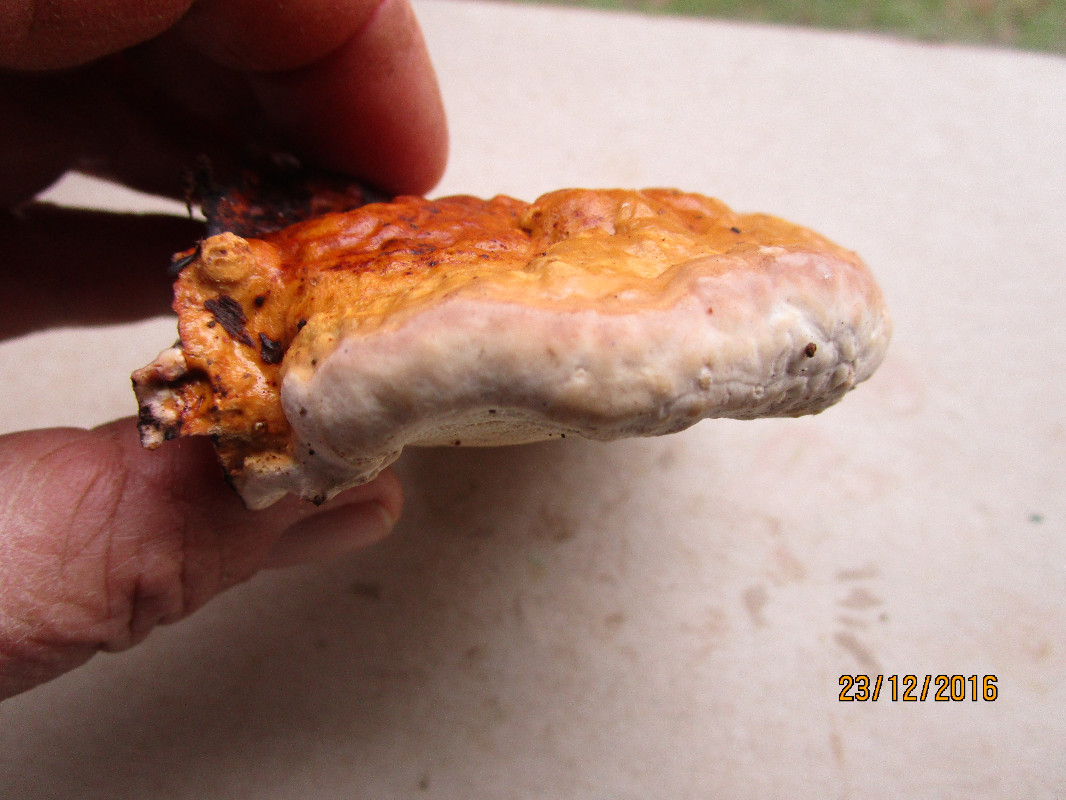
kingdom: Fungi
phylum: Basidiomycota
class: Agaricomycetes
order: Hymenochaetales
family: Oxyporaceae
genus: Oxyporus
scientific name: Oxyporus populinus
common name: sammenvokset trylleporesvamp
